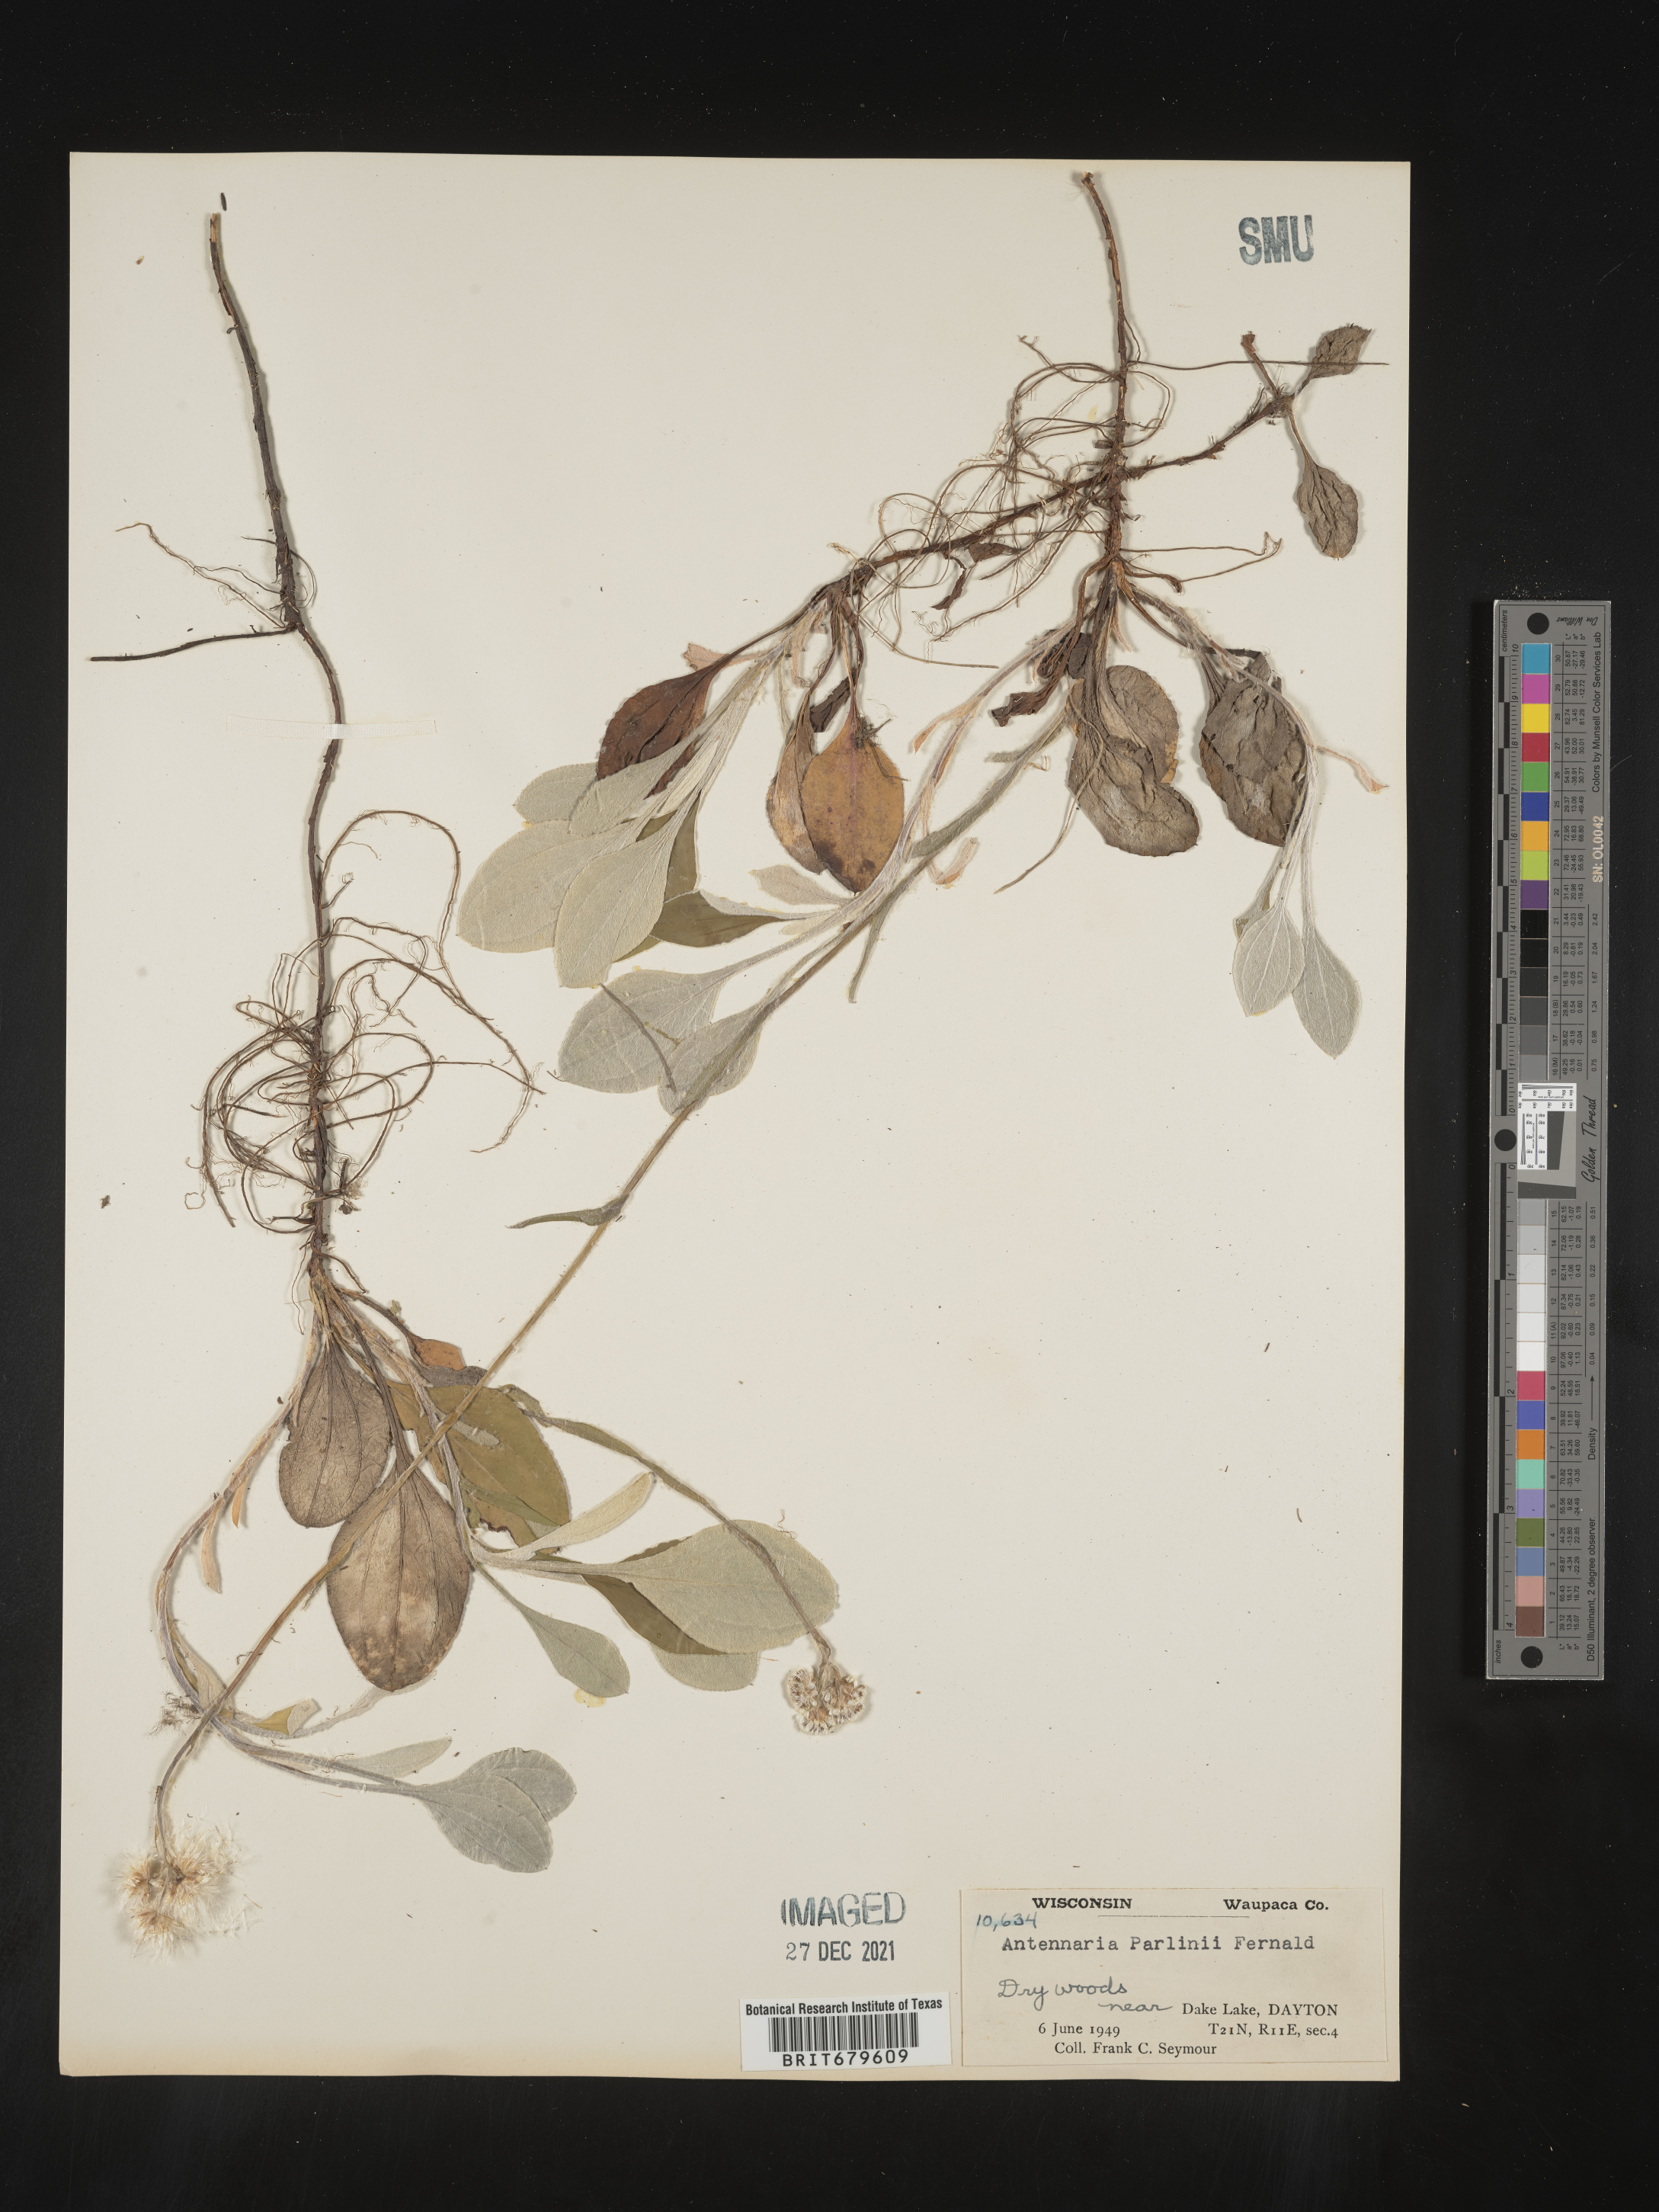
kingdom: Plantae
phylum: Tracheophyta
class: Magnoliopsida
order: Asterales
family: Asteraceae
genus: Antennaria
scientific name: Antennaria parlinii
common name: Parlin's pussytoes
